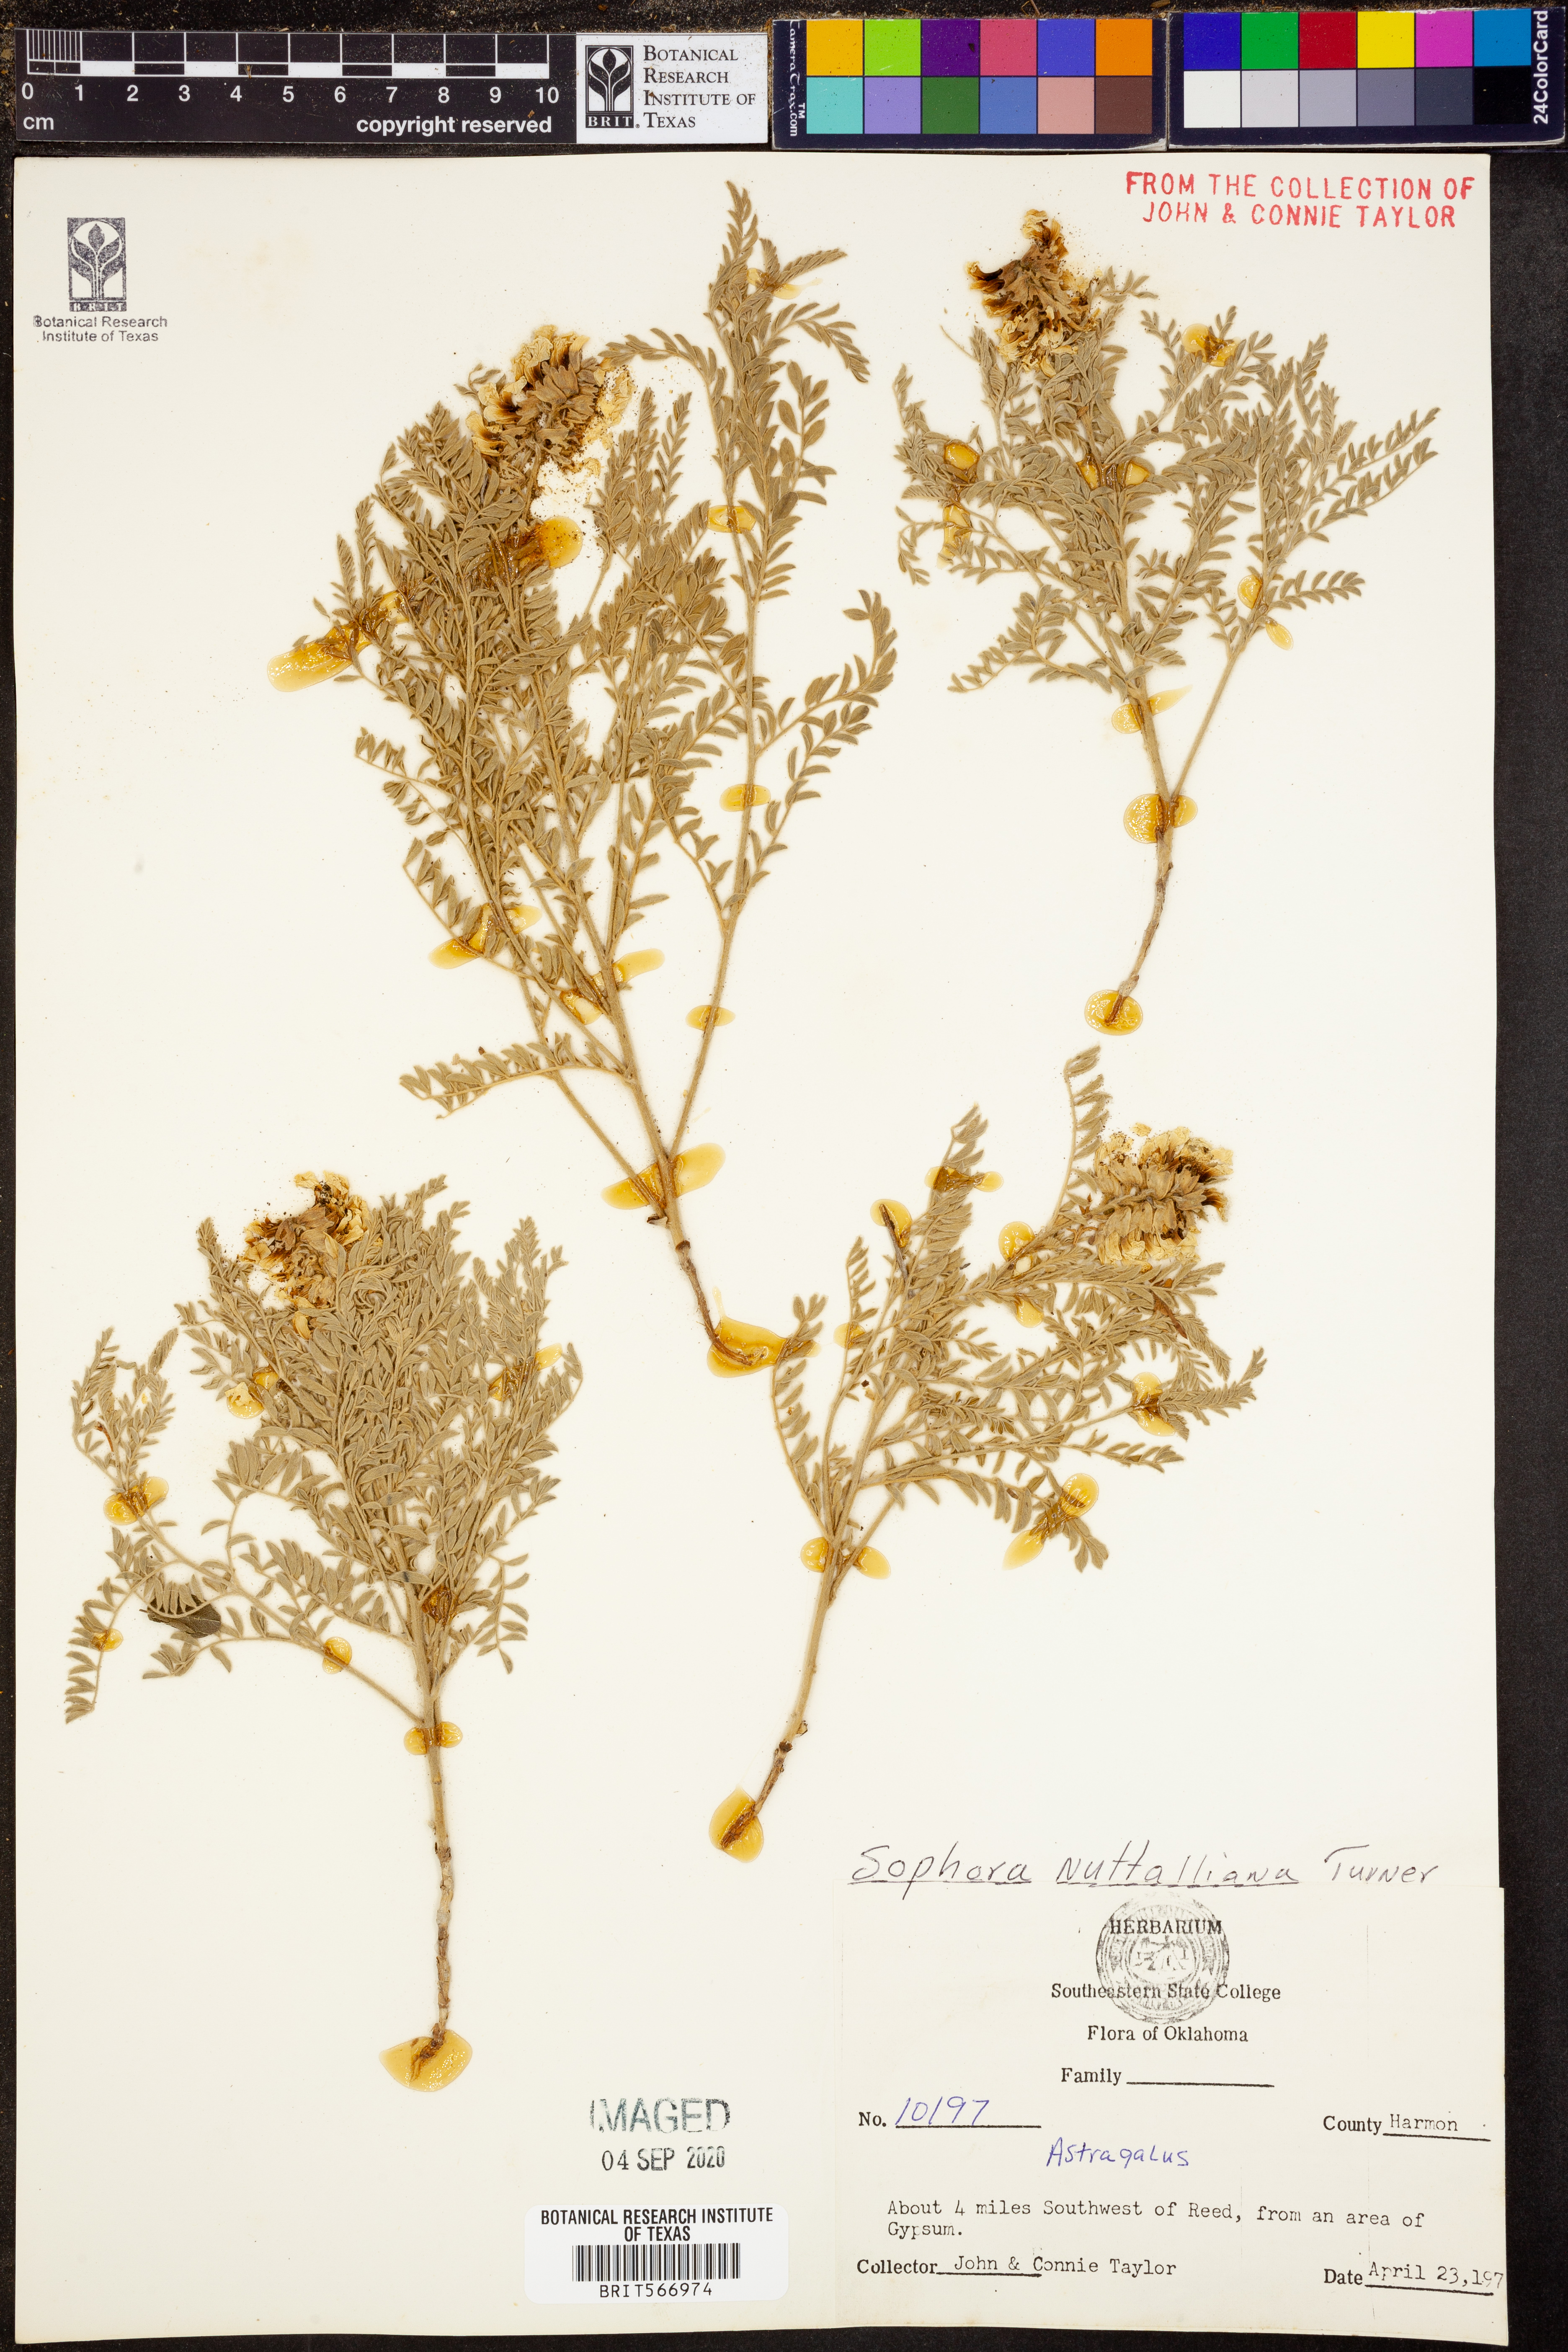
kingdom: Plantae
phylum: Tracheophyta
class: Magnoliopsida
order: Fabales
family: Fabaceae
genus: Sophora
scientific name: Sophora nuttalliana
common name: Silky sophora
